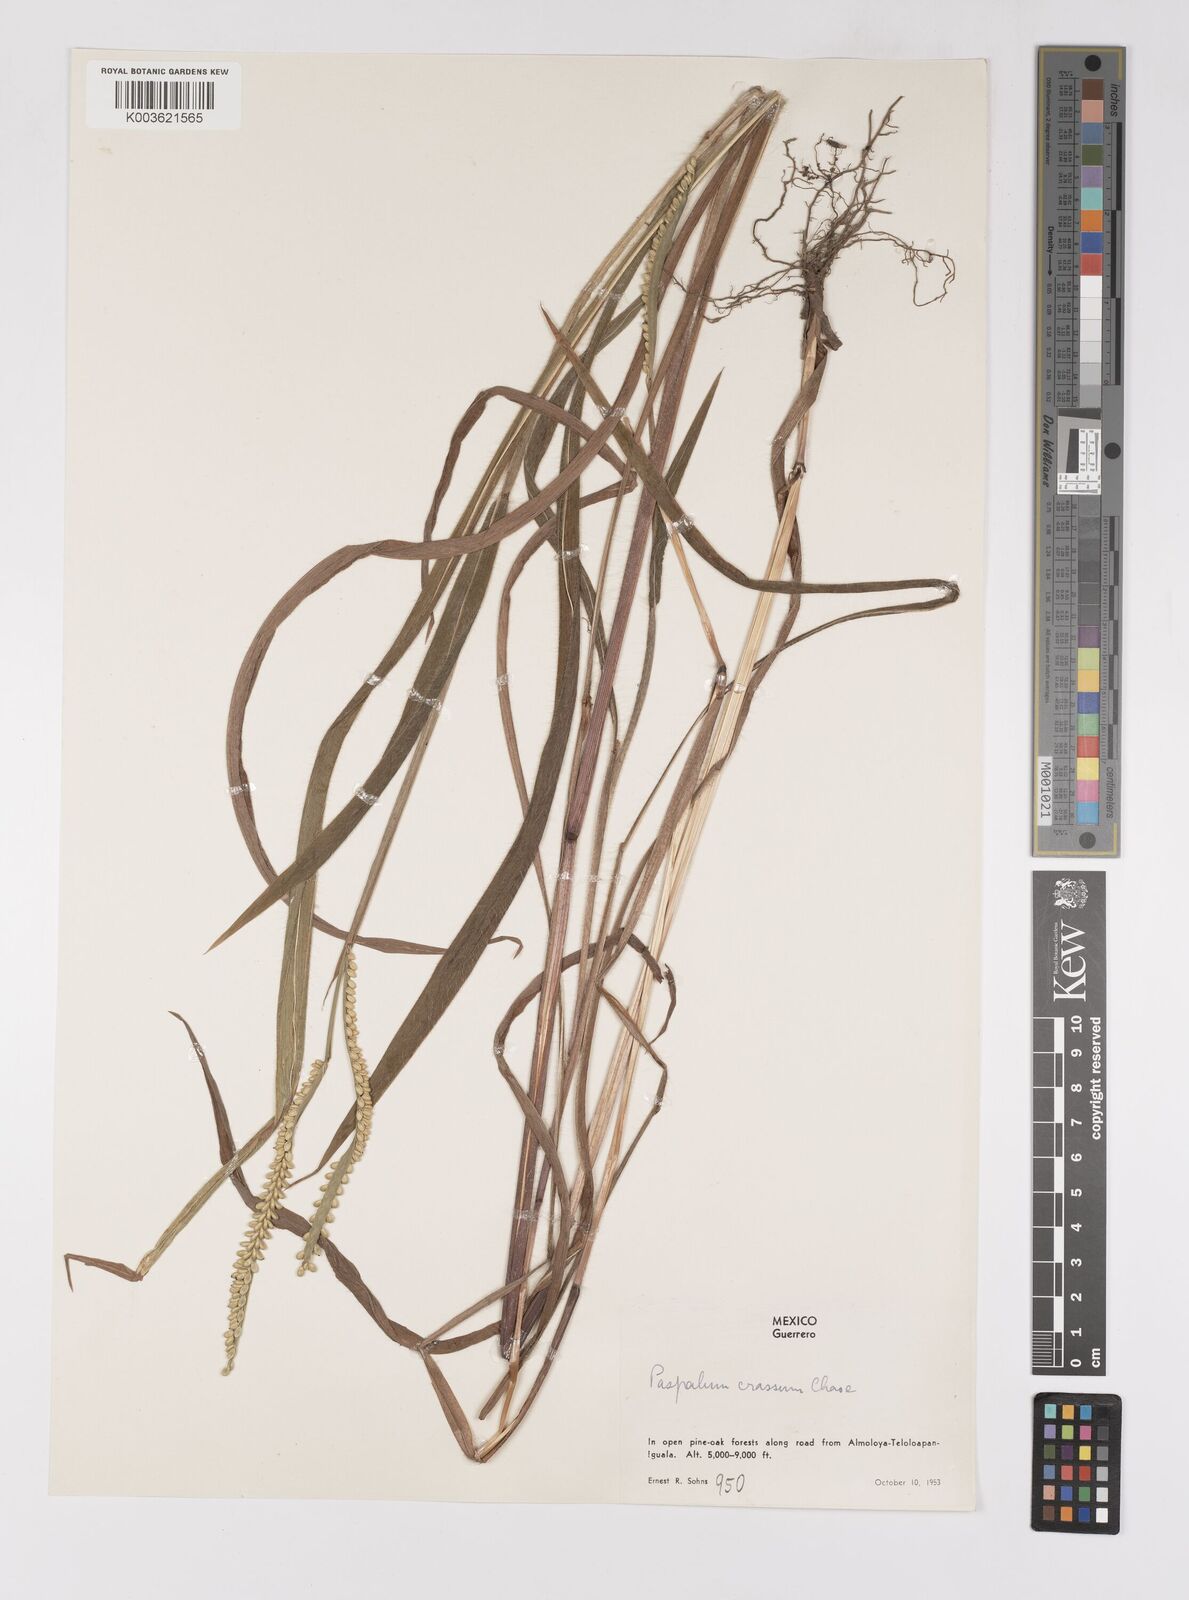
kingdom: Plantae
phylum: Tracheophyta
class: Liliopsida
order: Poales
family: Poaceae
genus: Paspalum
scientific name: Paspalum crassum
